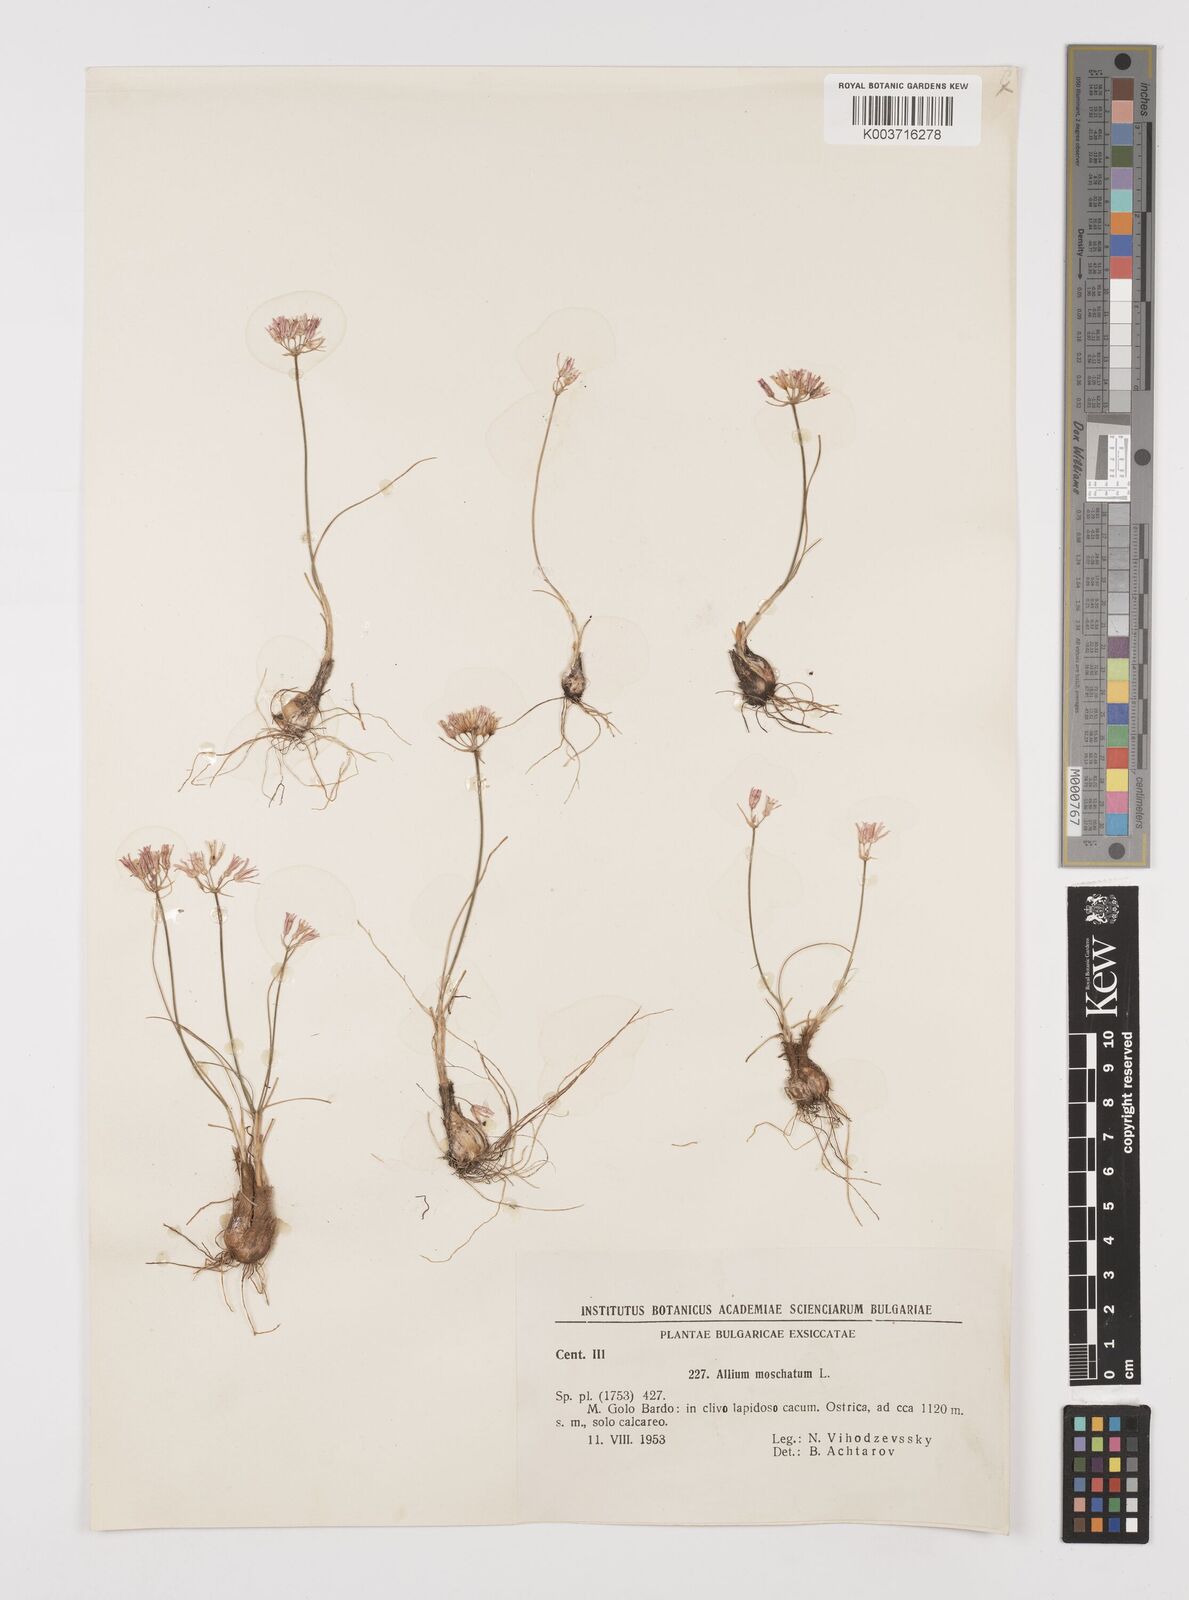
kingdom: Plantae
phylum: Tracheophyta
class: Liliopsida
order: Asparagales
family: Amaryllidaceae
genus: Allium
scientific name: Allium moschatum
